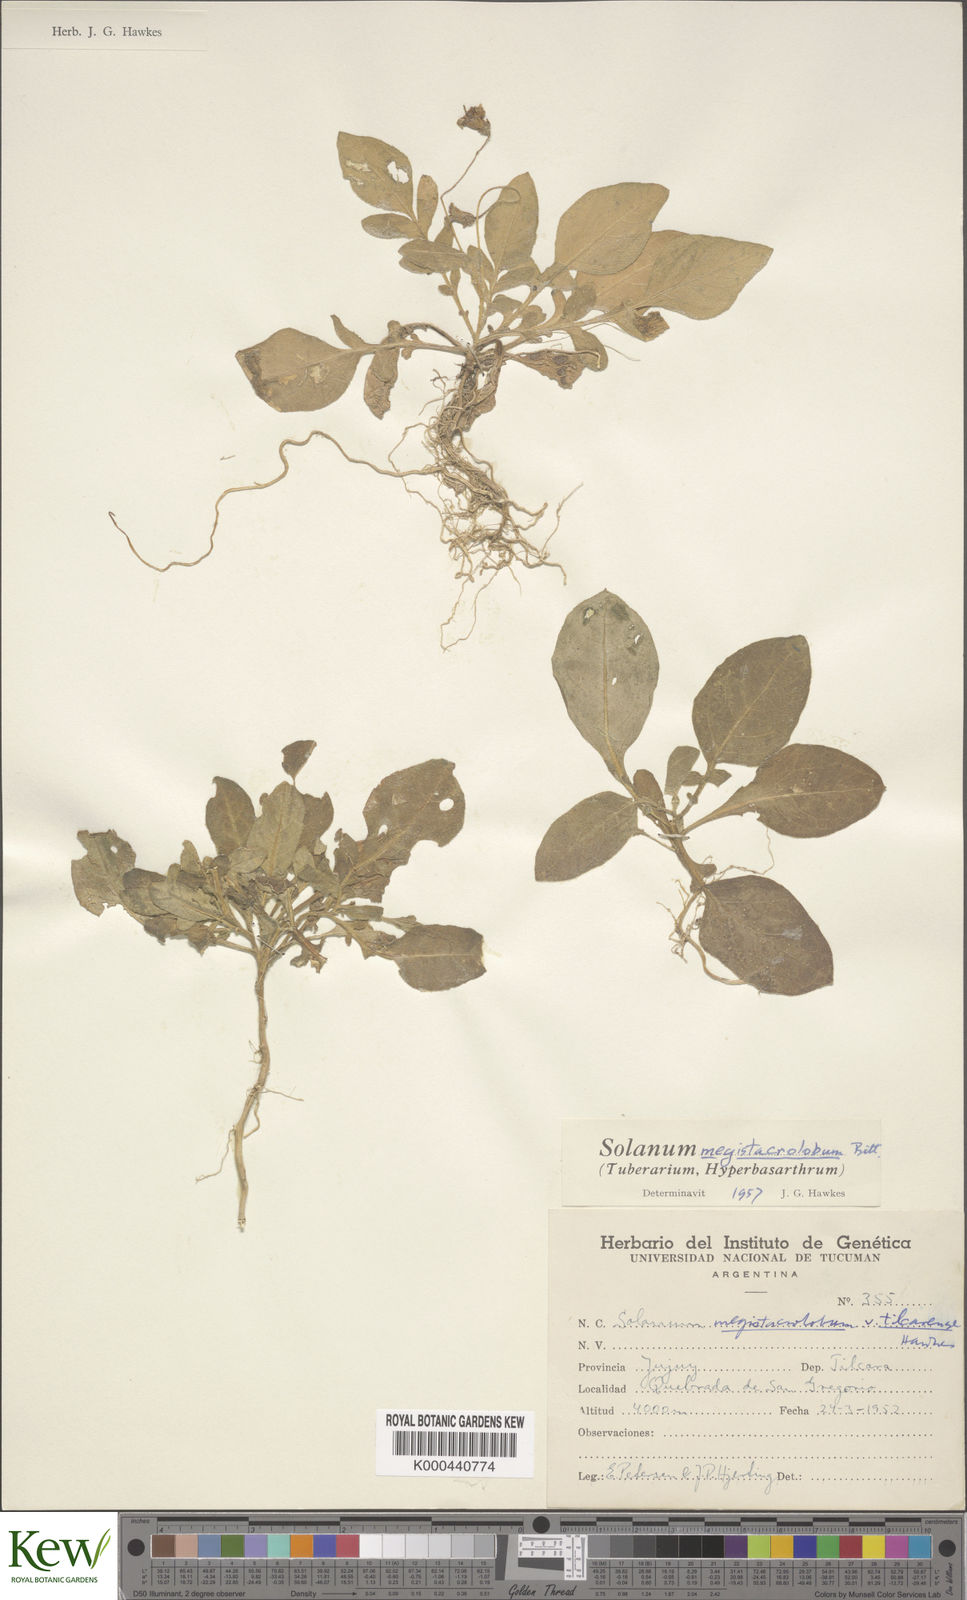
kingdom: Plantae
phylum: Tracheophyta
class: Magnoliopsida
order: Solanales
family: Solanaceae
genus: Solanum
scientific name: Solanum boliviense
